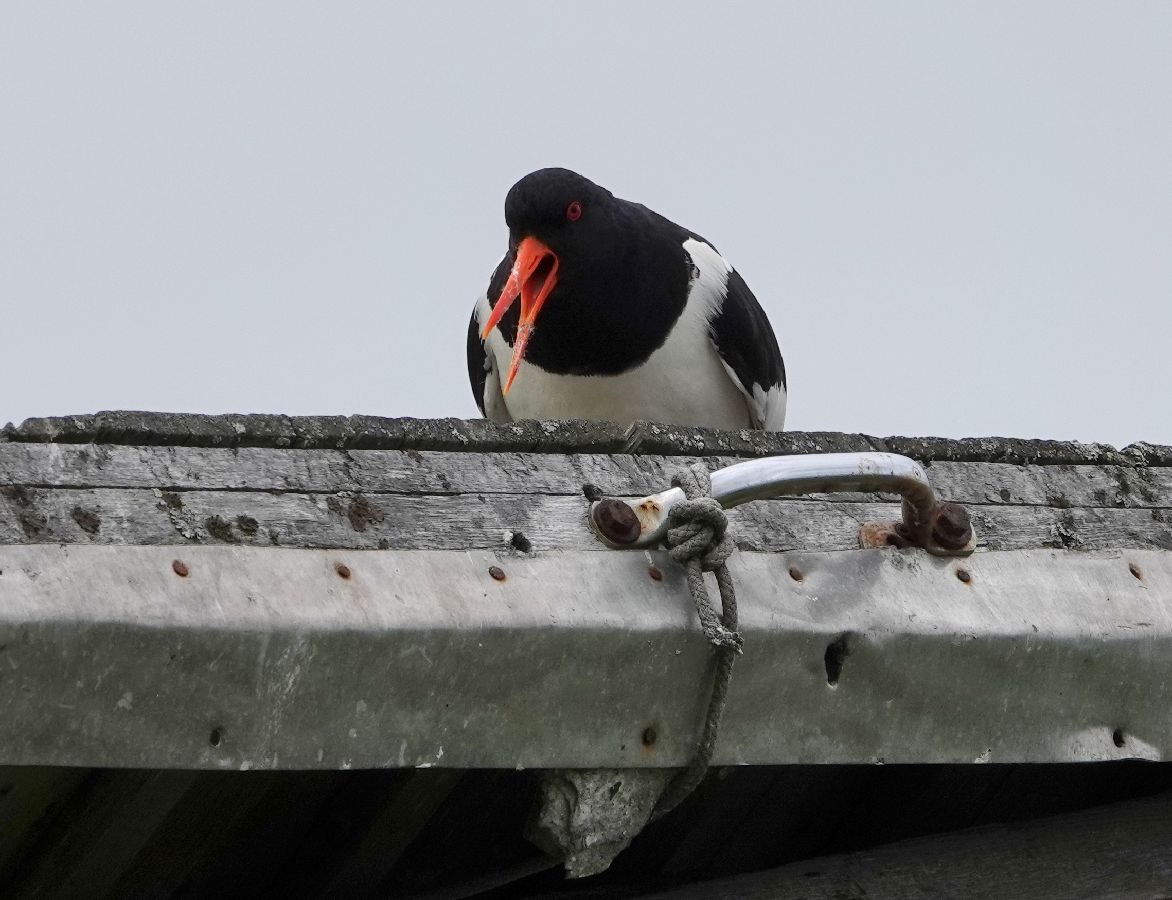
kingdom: Animalia
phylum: Chordata
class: Aves
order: Charadriiformes
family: Haematopodidae
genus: Haematopus
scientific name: Haematopus ostralegus
